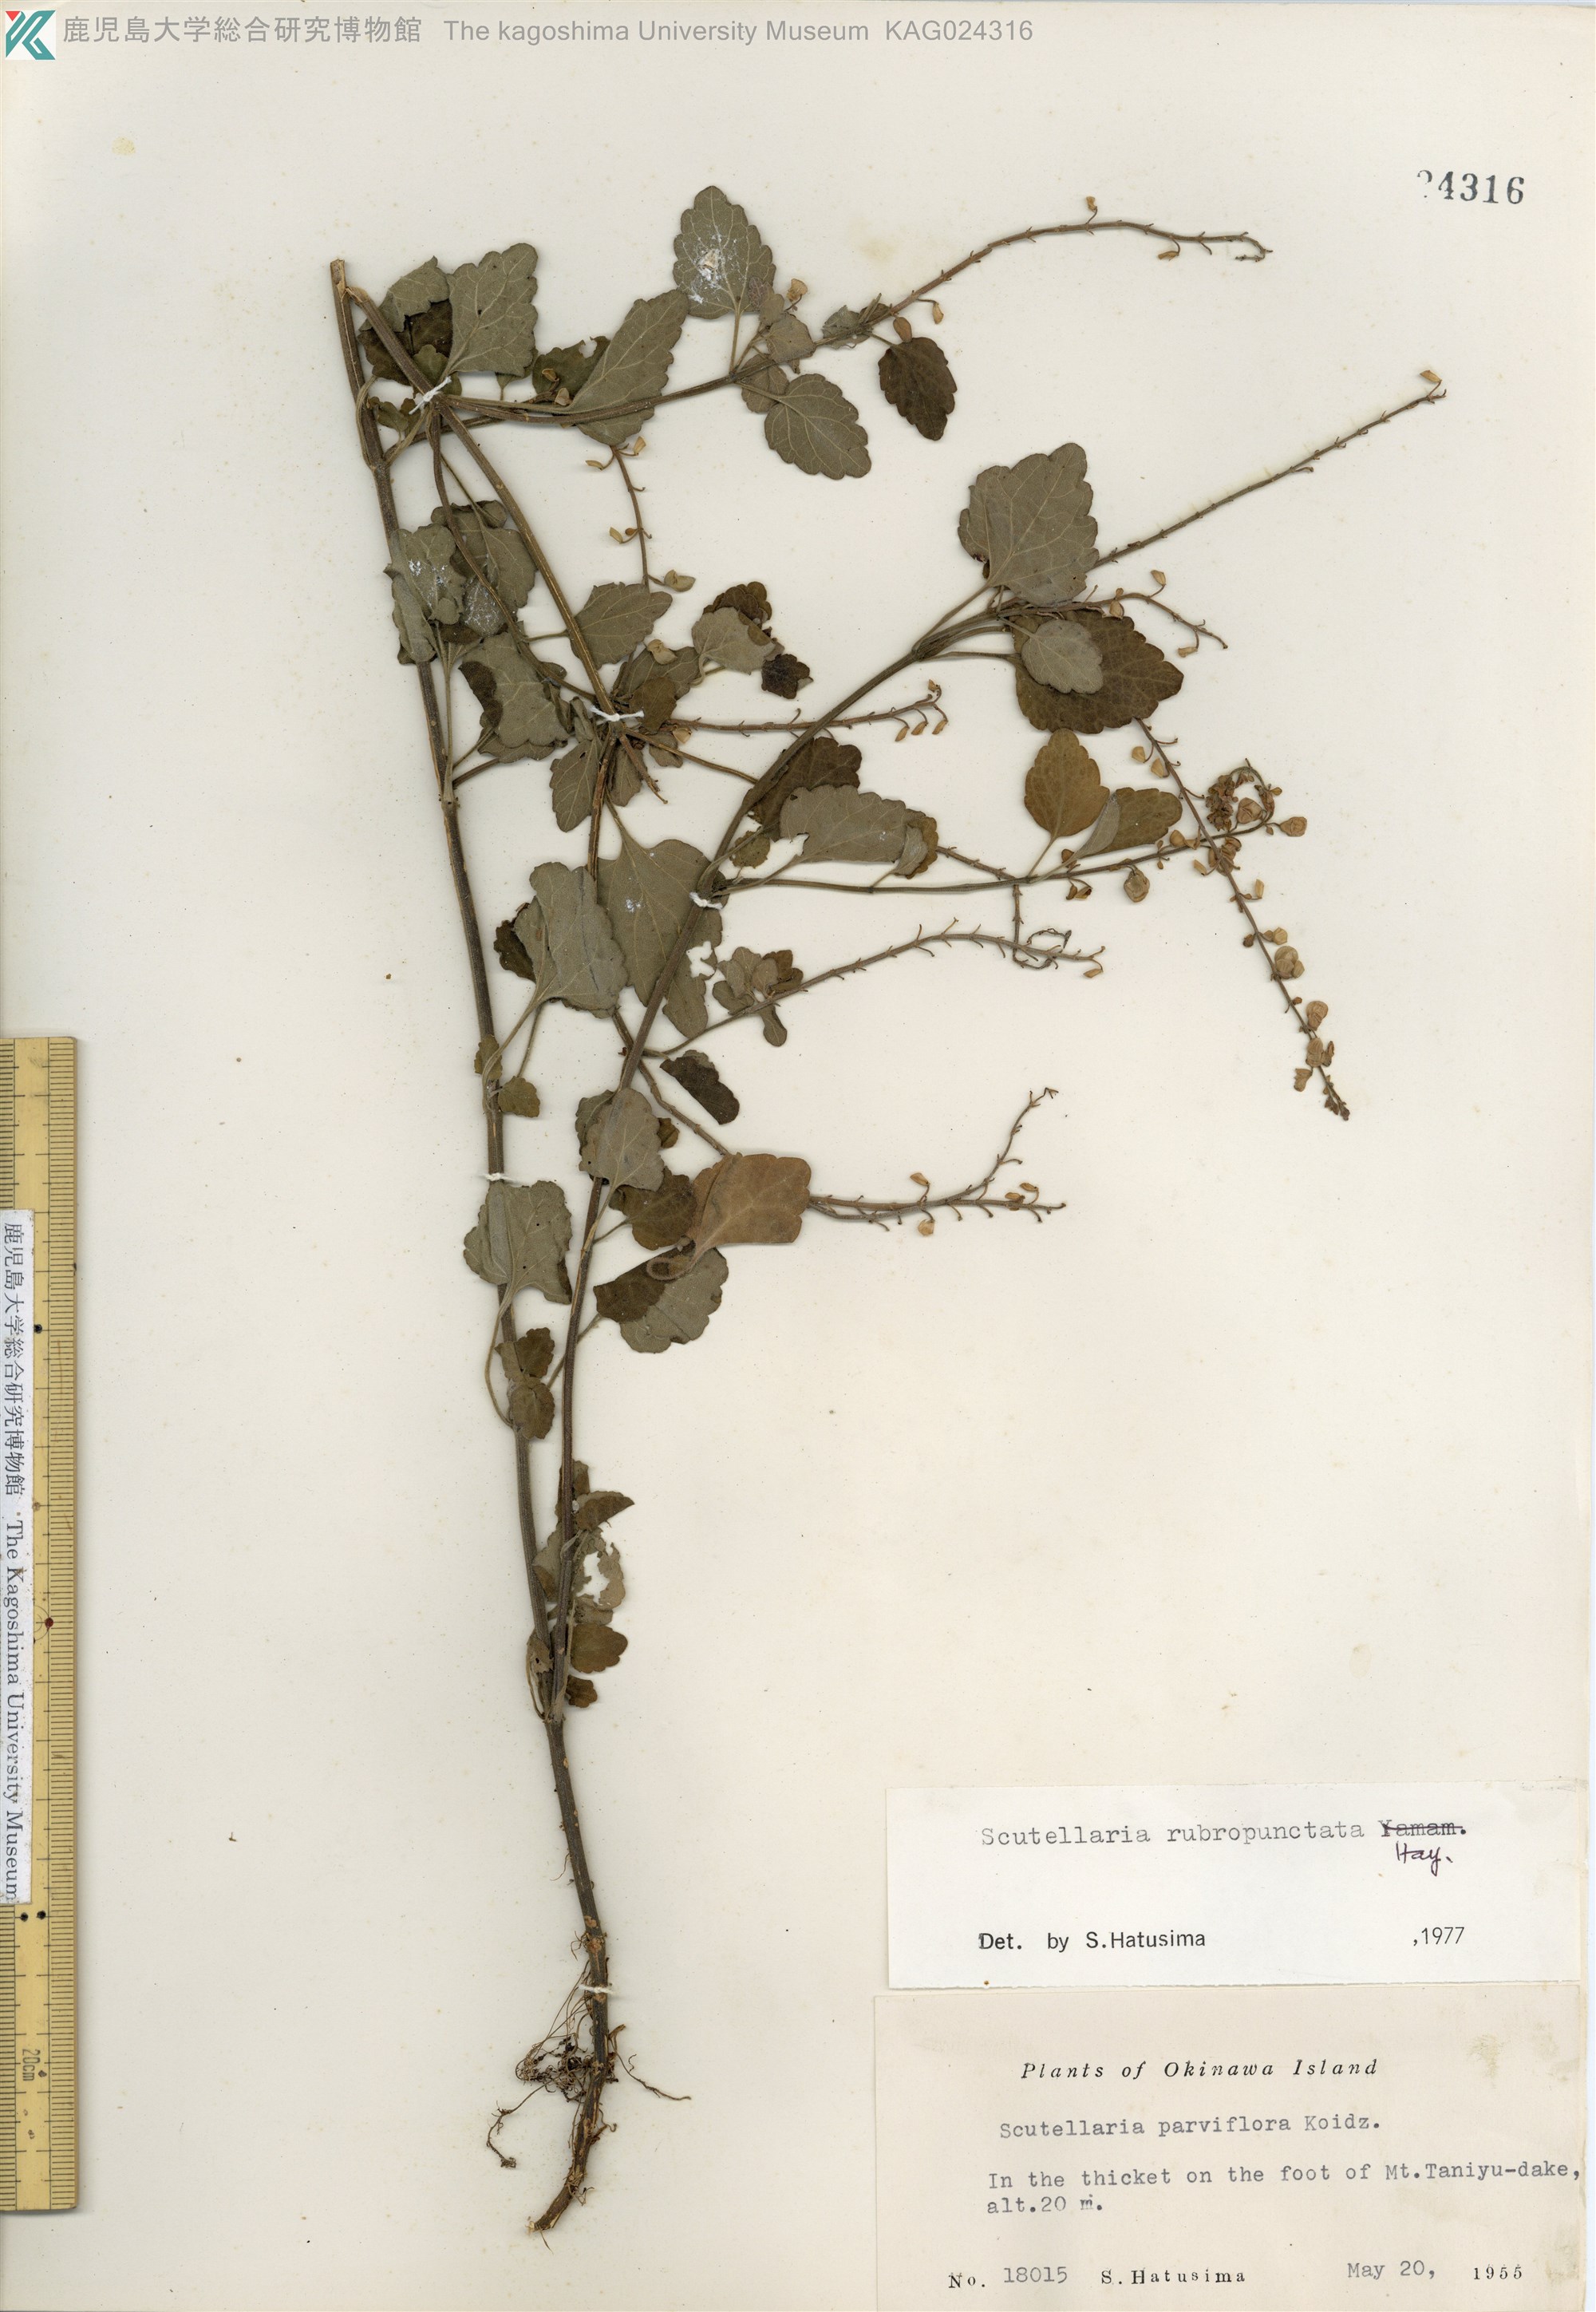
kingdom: Plantae
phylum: Tracheophyta
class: Magnoliopsida
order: Lamiales
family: Lamiaceae
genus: Scutellaria
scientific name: Scutellaria rubropunctata
